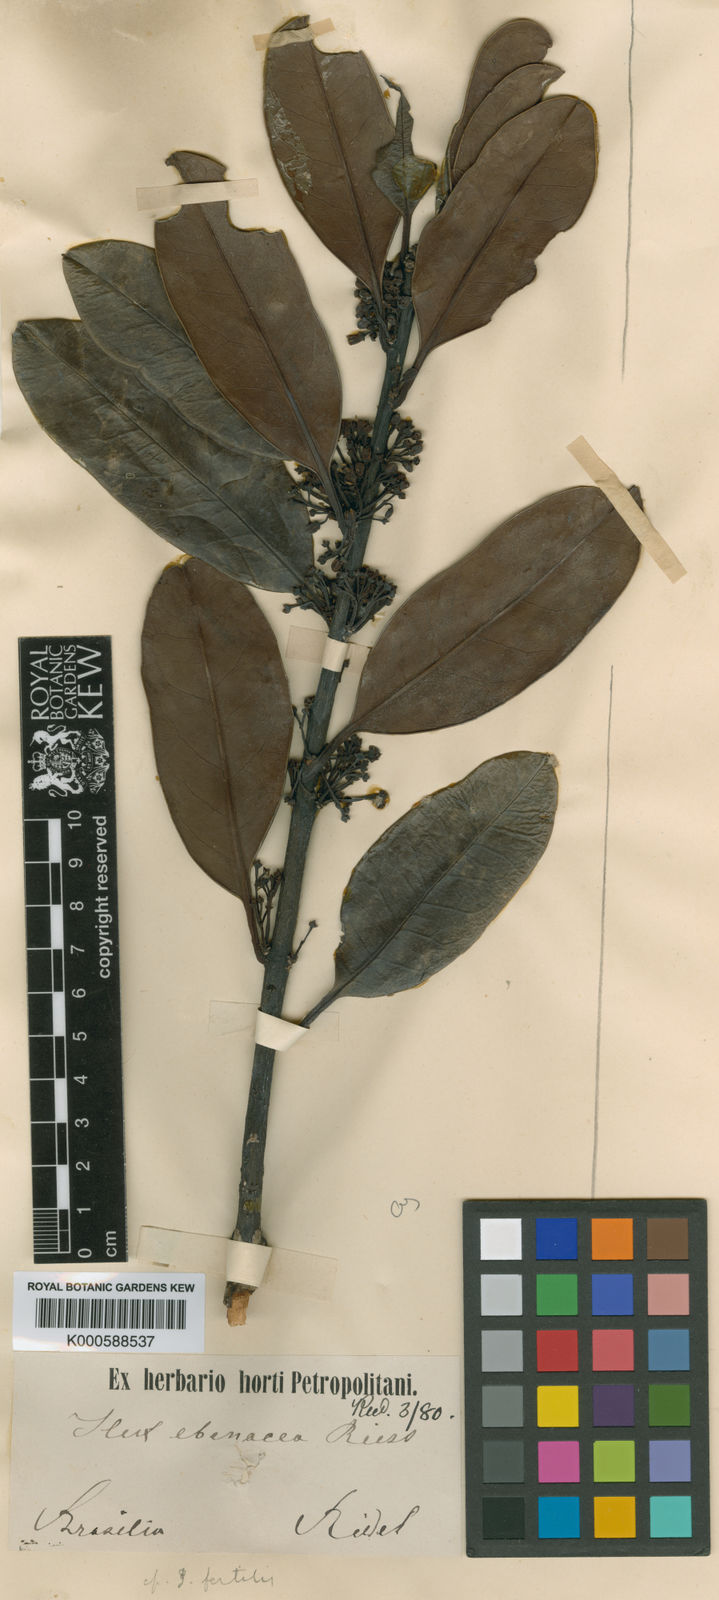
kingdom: Plantae
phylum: Tracheophyta
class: Magnoliopsida
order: Aquifoliales
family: Aquifoliaceae
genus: Ilex
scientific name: Ilex integerrima
